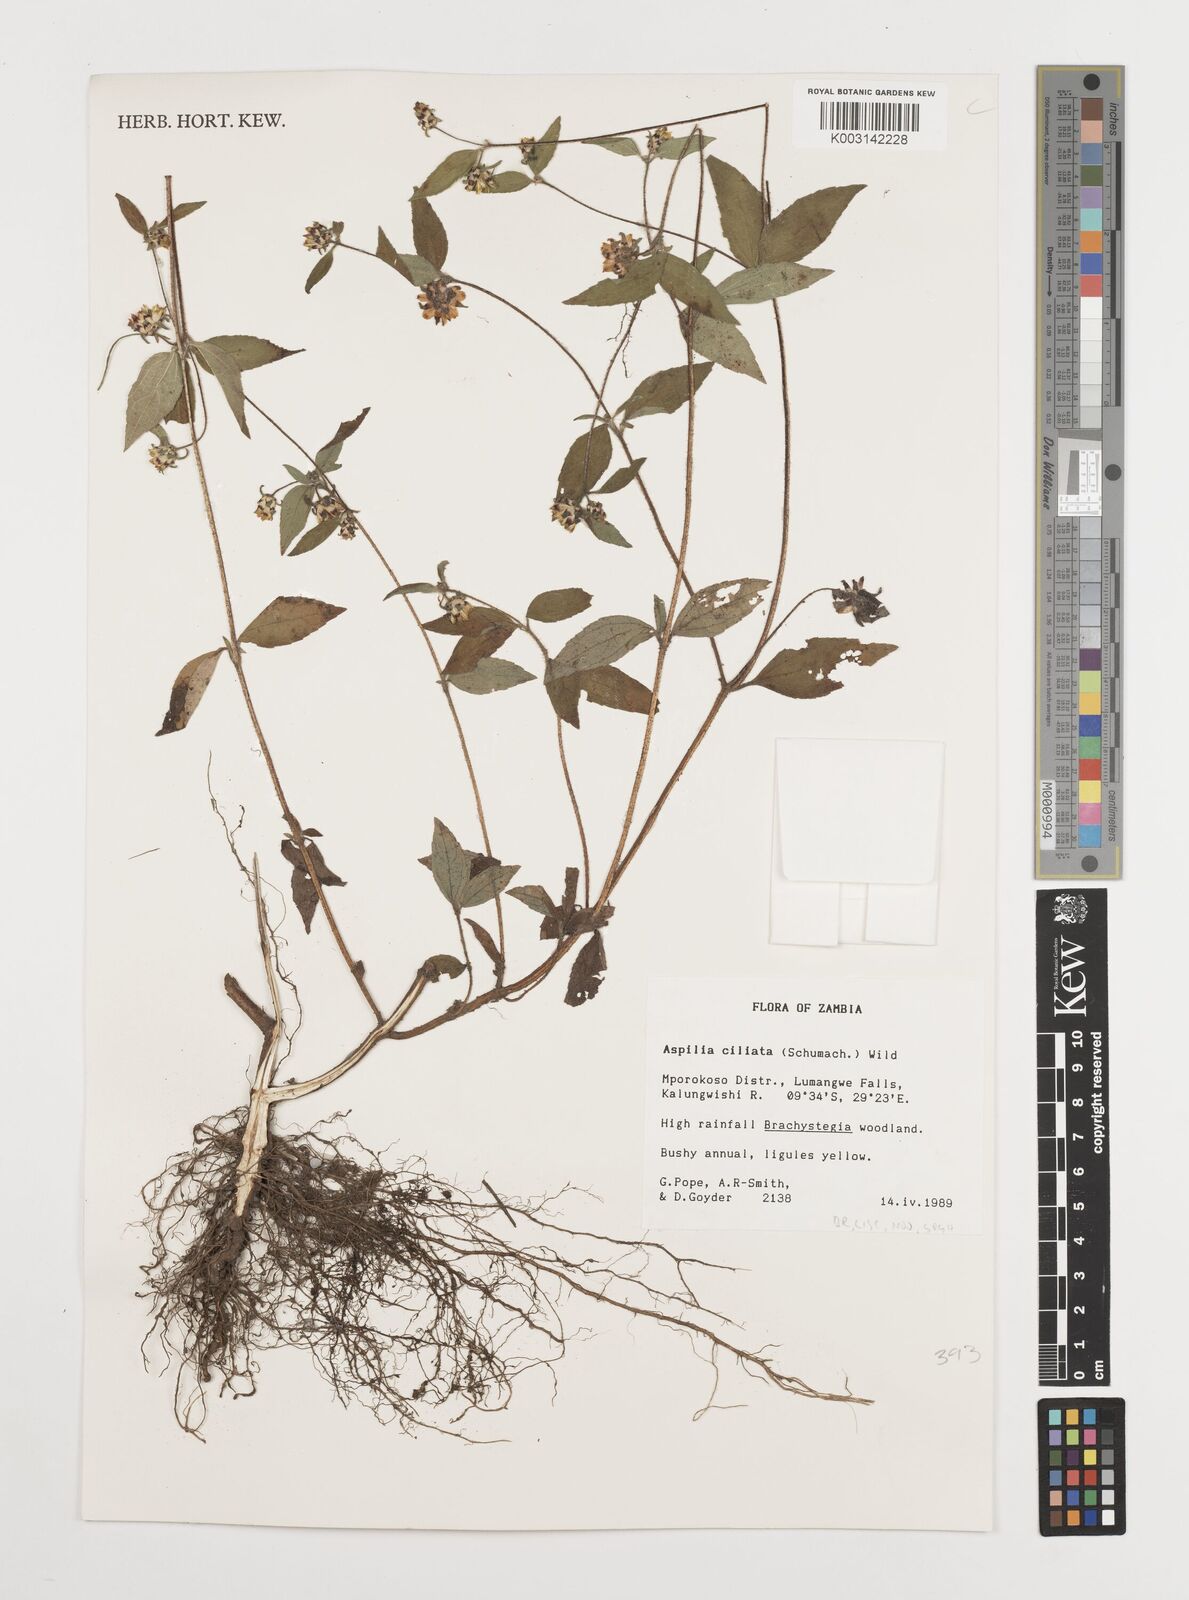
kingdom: Plantae
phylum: Tracheophyta
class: Magnoliopsida
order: Asterales
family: Asteraceae
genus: Aspilia
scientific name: Aspilia ciliata
